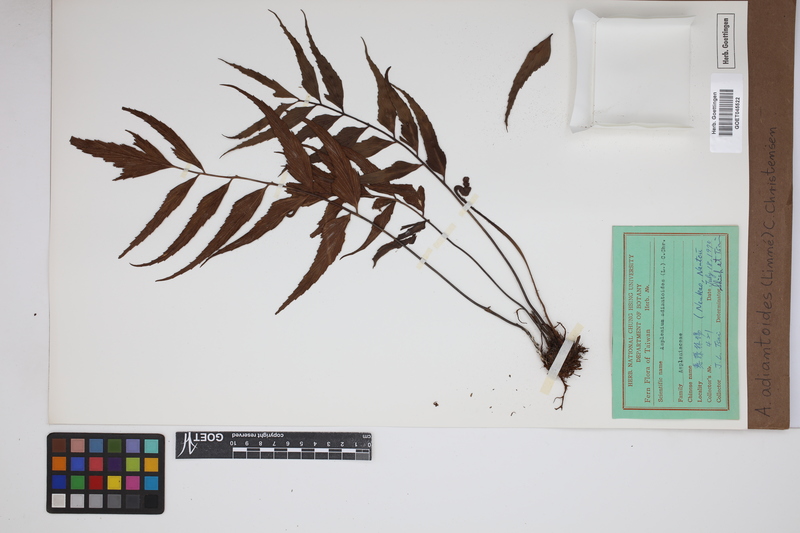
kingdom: Plantae
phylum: Tracheophyta
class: Polypodiopsida
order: Polypodiales
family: Aspleniaceae
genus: Asplenium
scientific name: Asplenium aethiopicum
